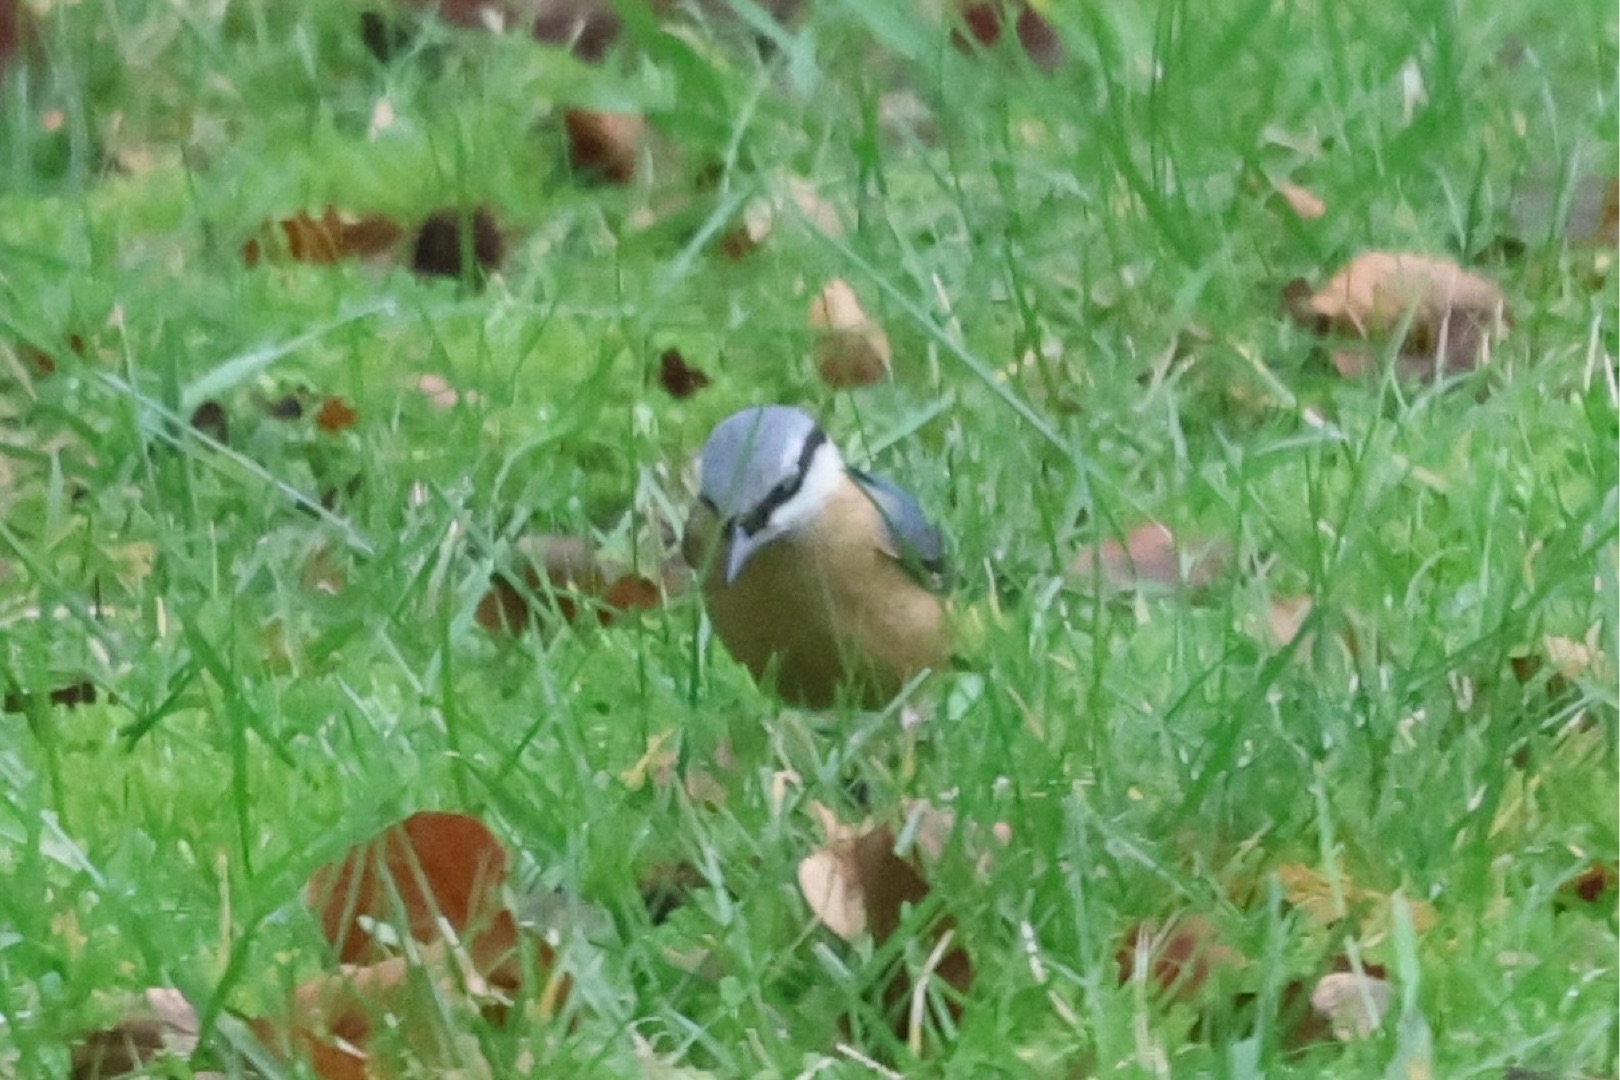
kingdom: Animalia
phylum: Chordata
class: Aves
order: Passeriformes
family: Sittidae
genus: Sitta
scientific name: Sitta europaea
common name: Spætmejse
